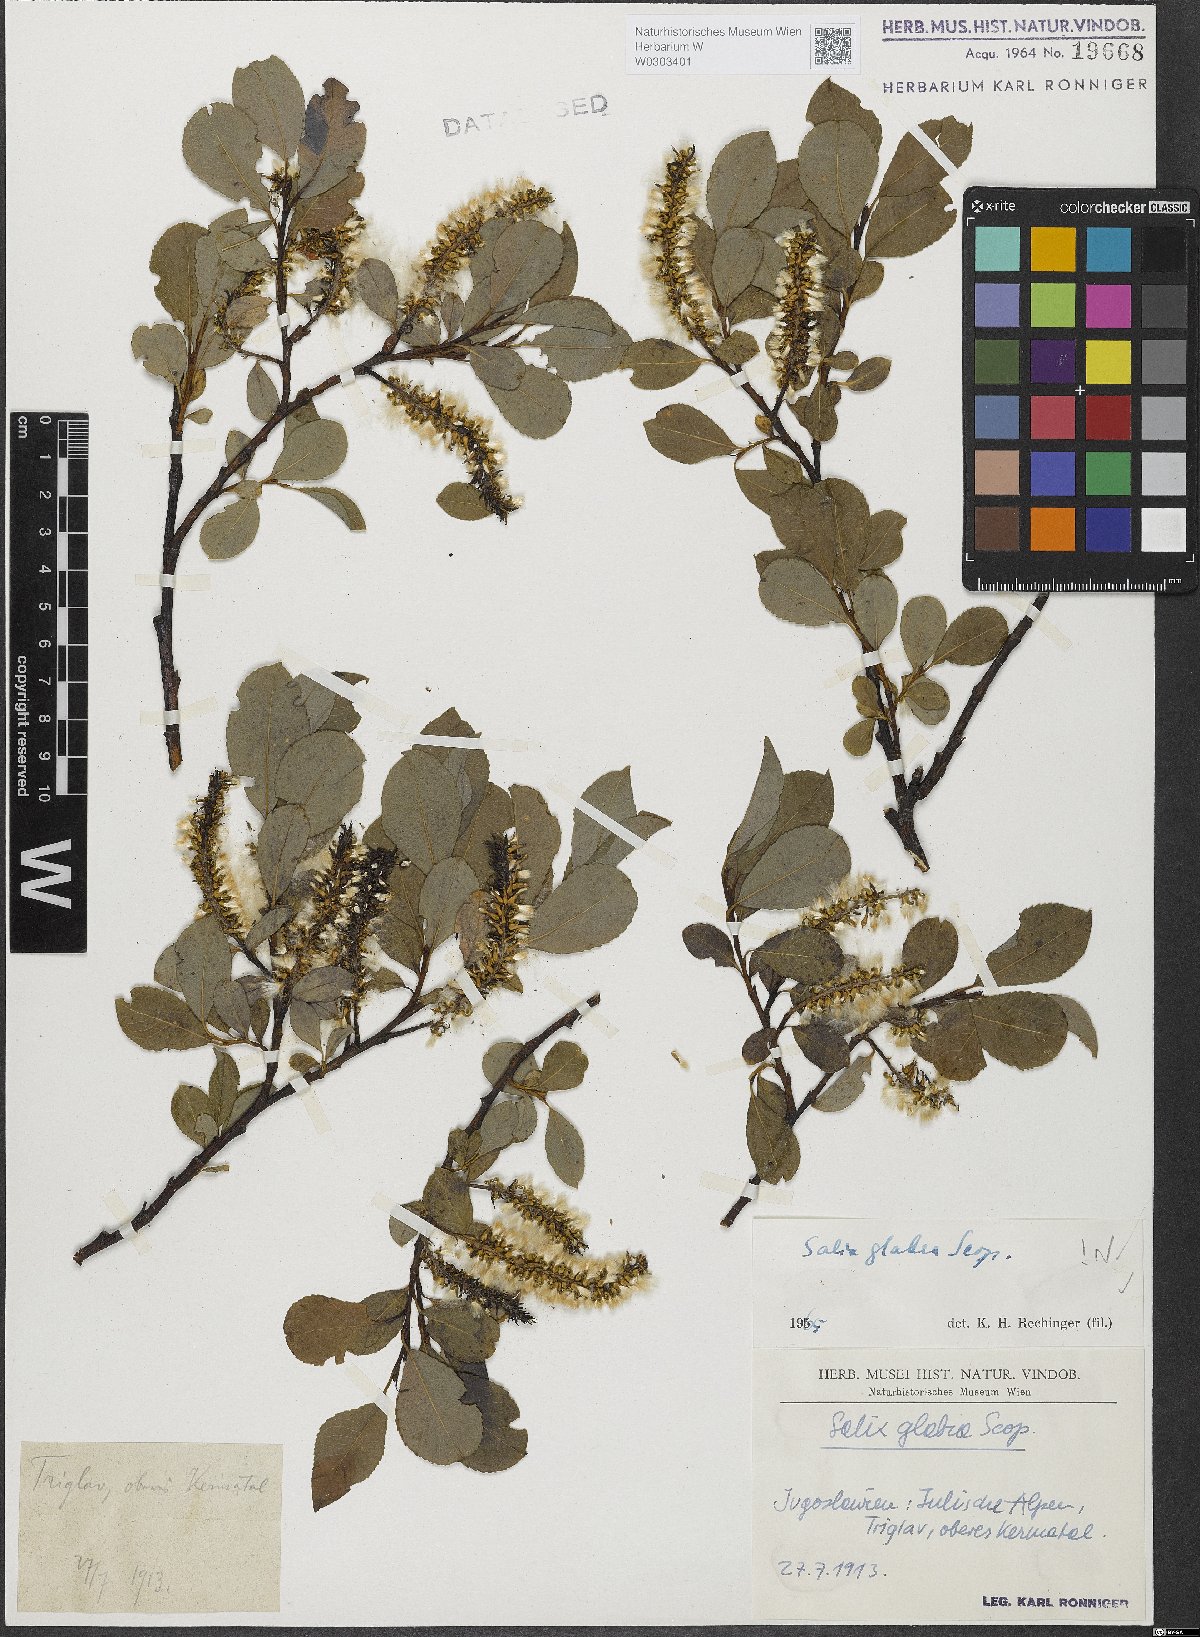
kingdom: Plantae
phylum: Tracheophyta
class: Magnoliopsida
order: Malpighiales
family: Salicaceae
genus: Salix
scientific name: Salix glabra
